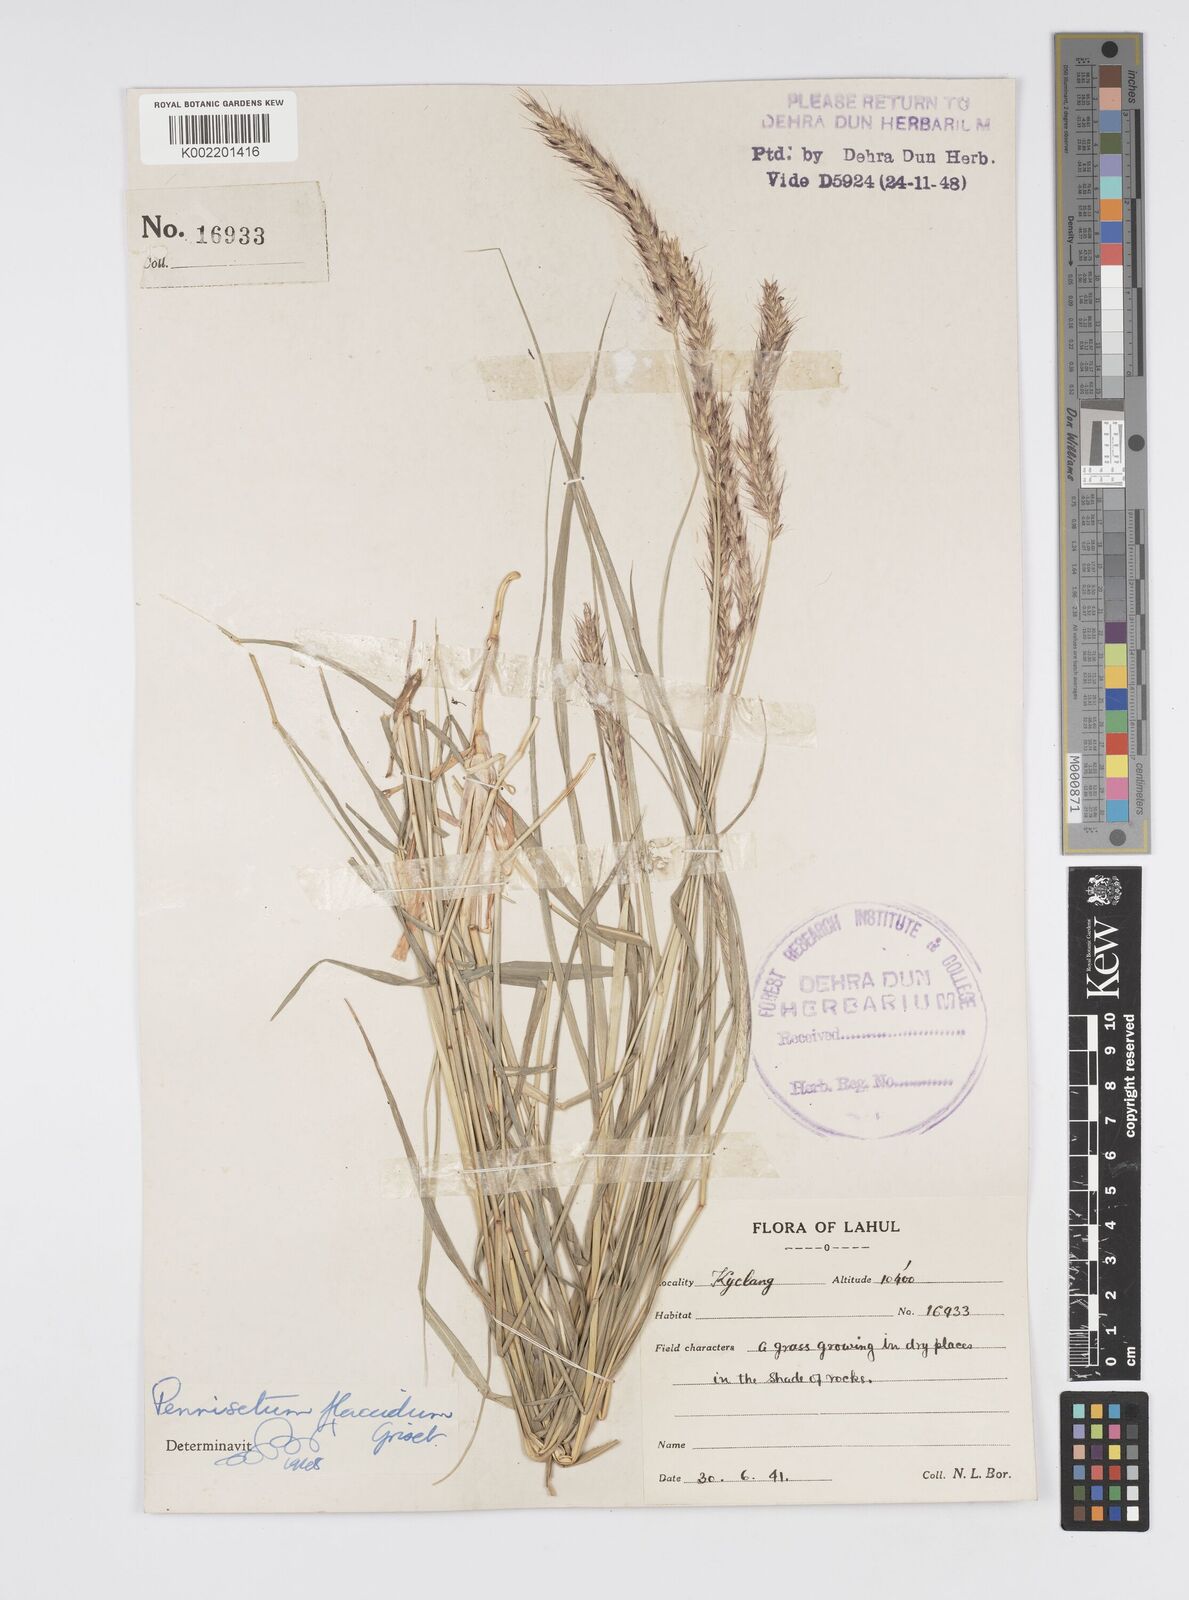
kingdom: Plantae
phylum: Tracheophyta
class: Liliopsida
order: Poales
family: Poaceae
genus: Cenchrus
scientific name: Cenchrus flaccidus
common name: Flaccid grass
